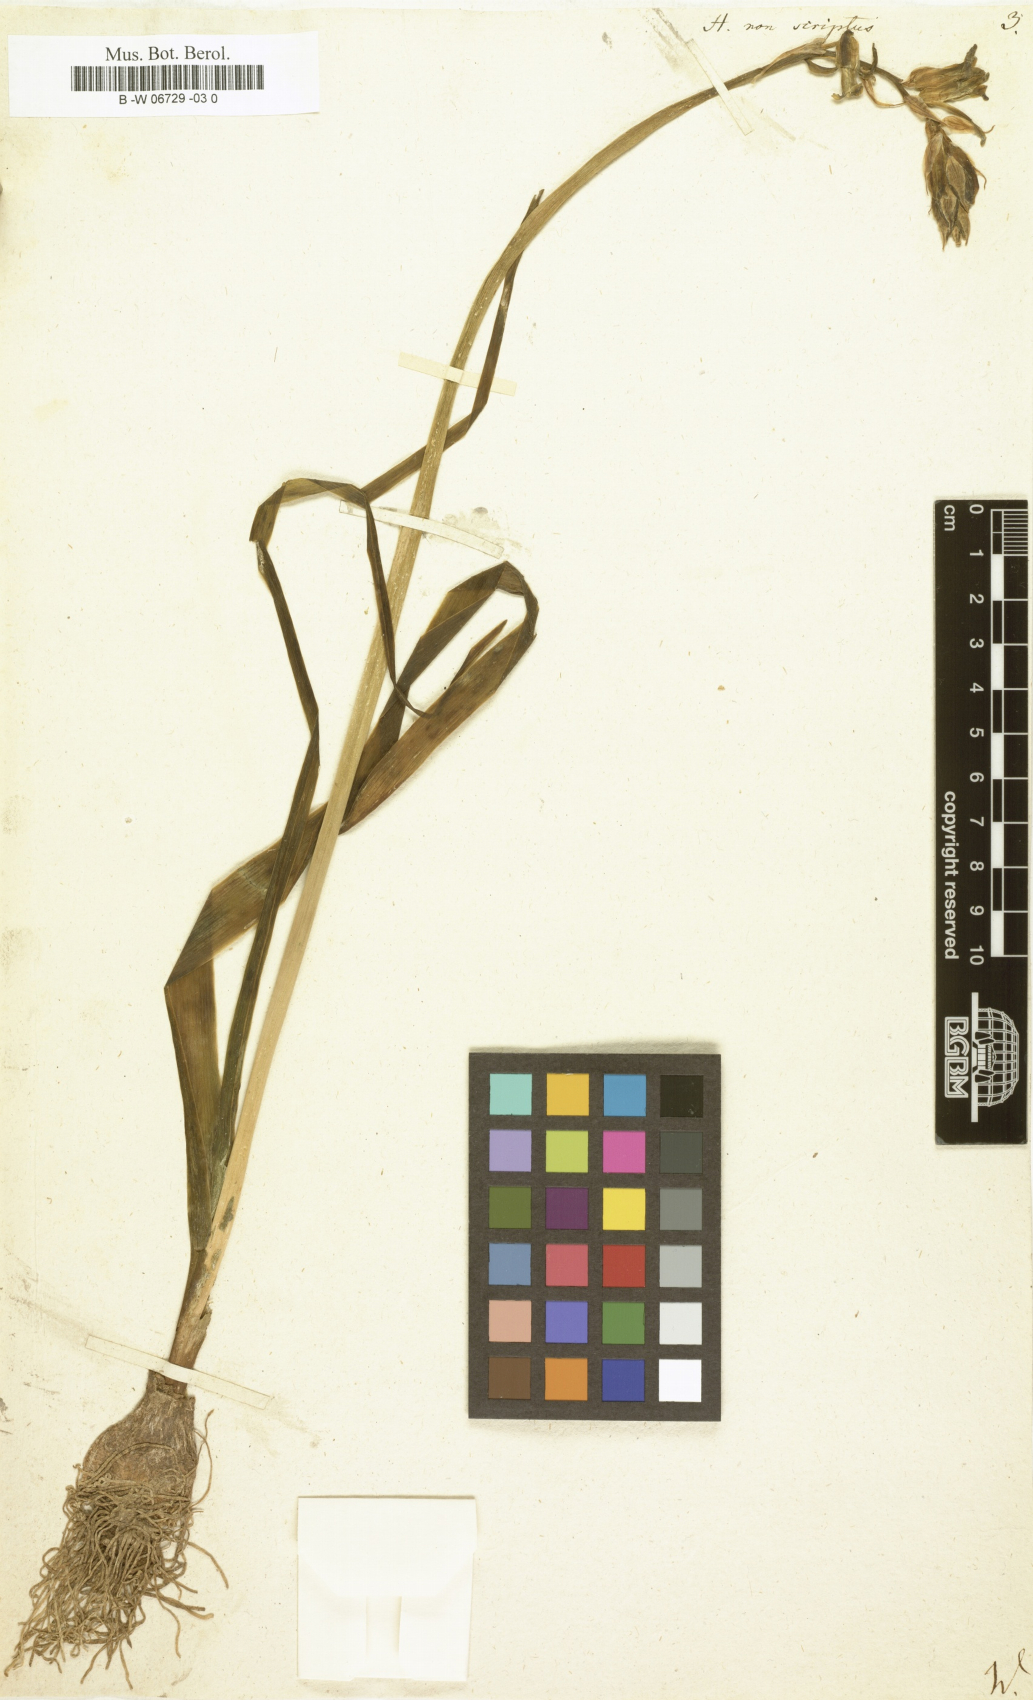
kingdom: Plantae
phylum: Tracheophyta
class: Liliopsida
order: Asparagales
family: Asparagaceae
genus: Hyacinthus
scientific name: Hyacinthus non-scriptus
